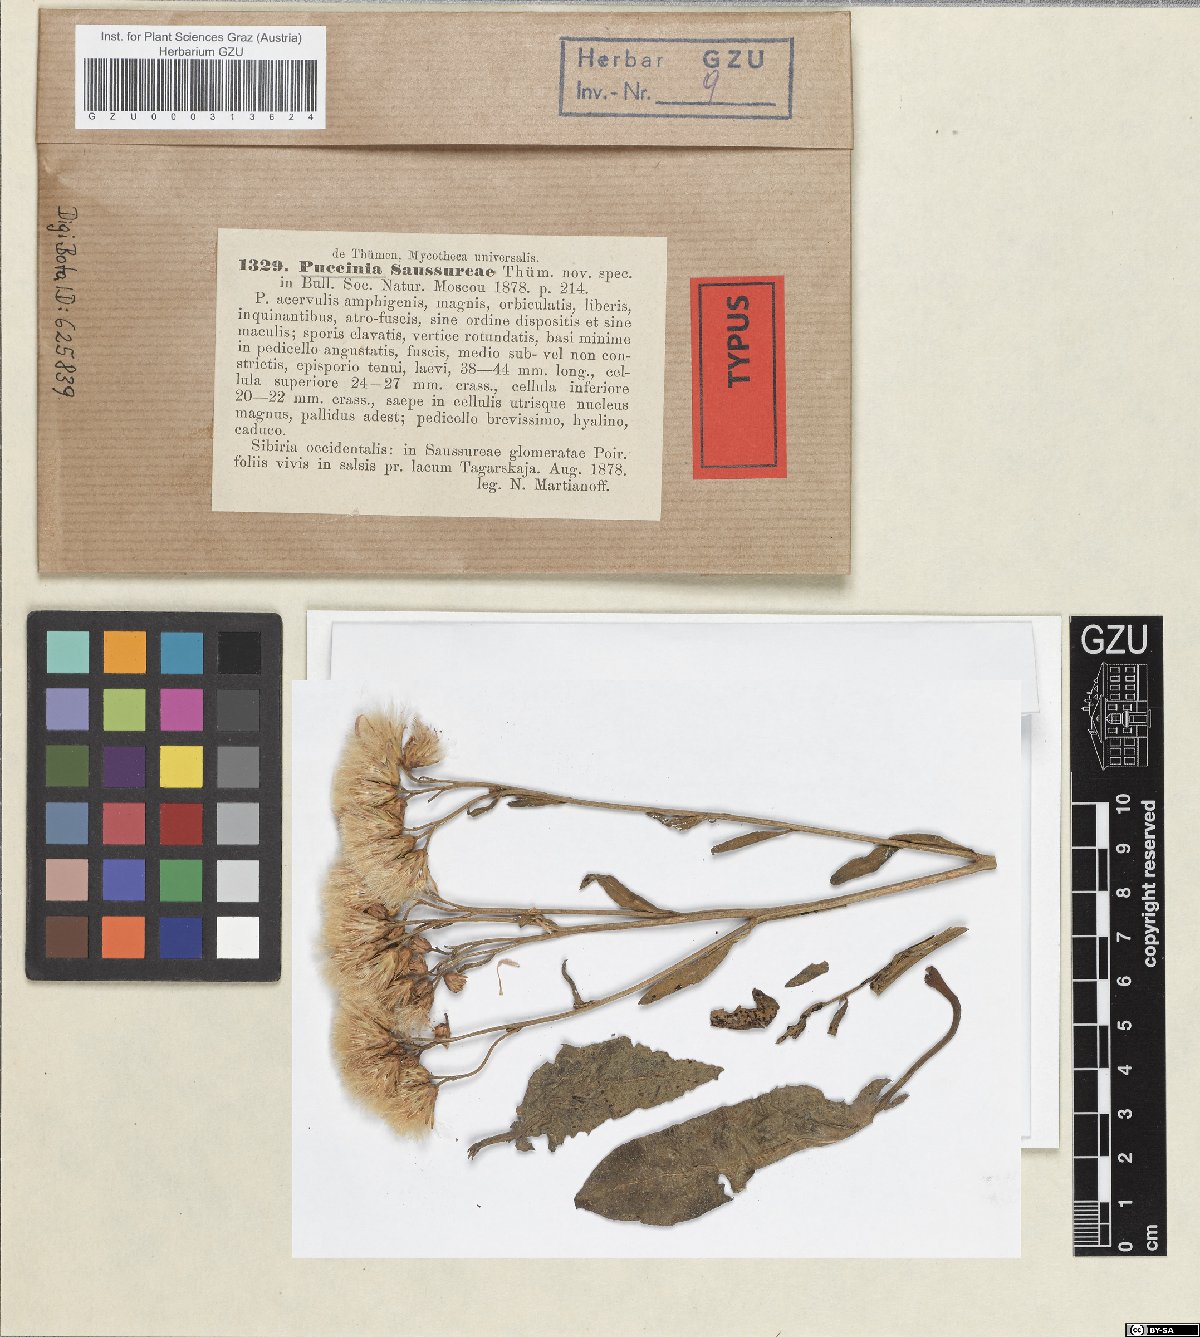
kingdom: Fungi
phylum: Basidiomycota
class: Pucciniomycetes
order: Pucciniales
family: Pucciniaceae
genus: Puccinia
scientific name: Puccinia saussureae
